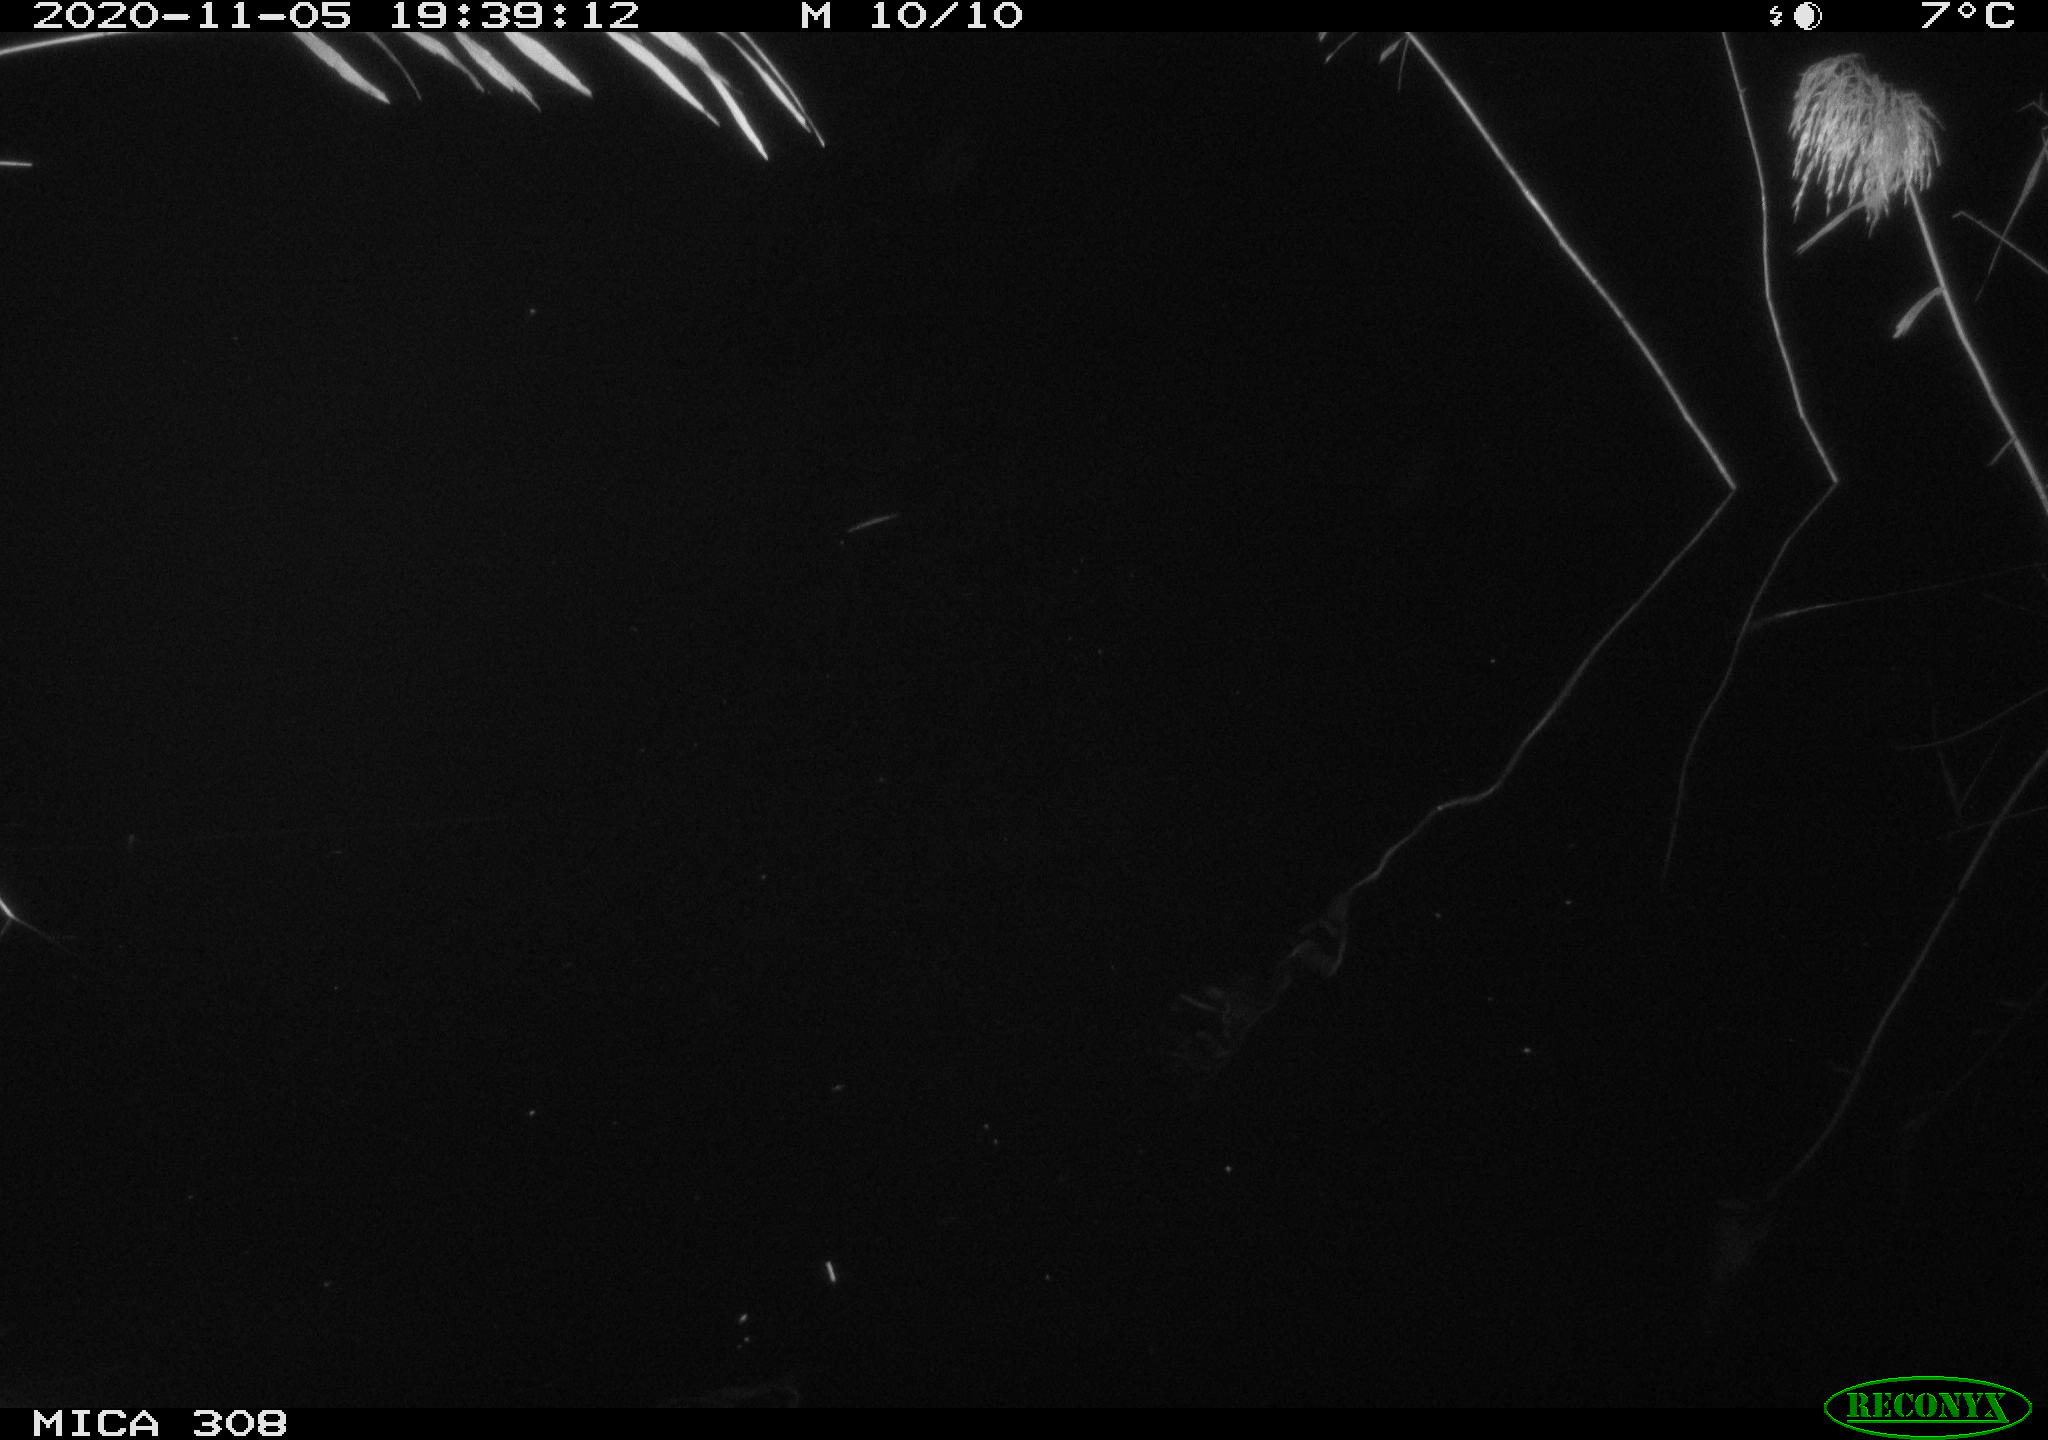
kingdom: Animalia
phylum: Chordata
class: Mammalia
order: Rodentia
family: Cricetidae
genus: Ondatra
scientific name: Ondatra zibethicus
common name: Muskrat
